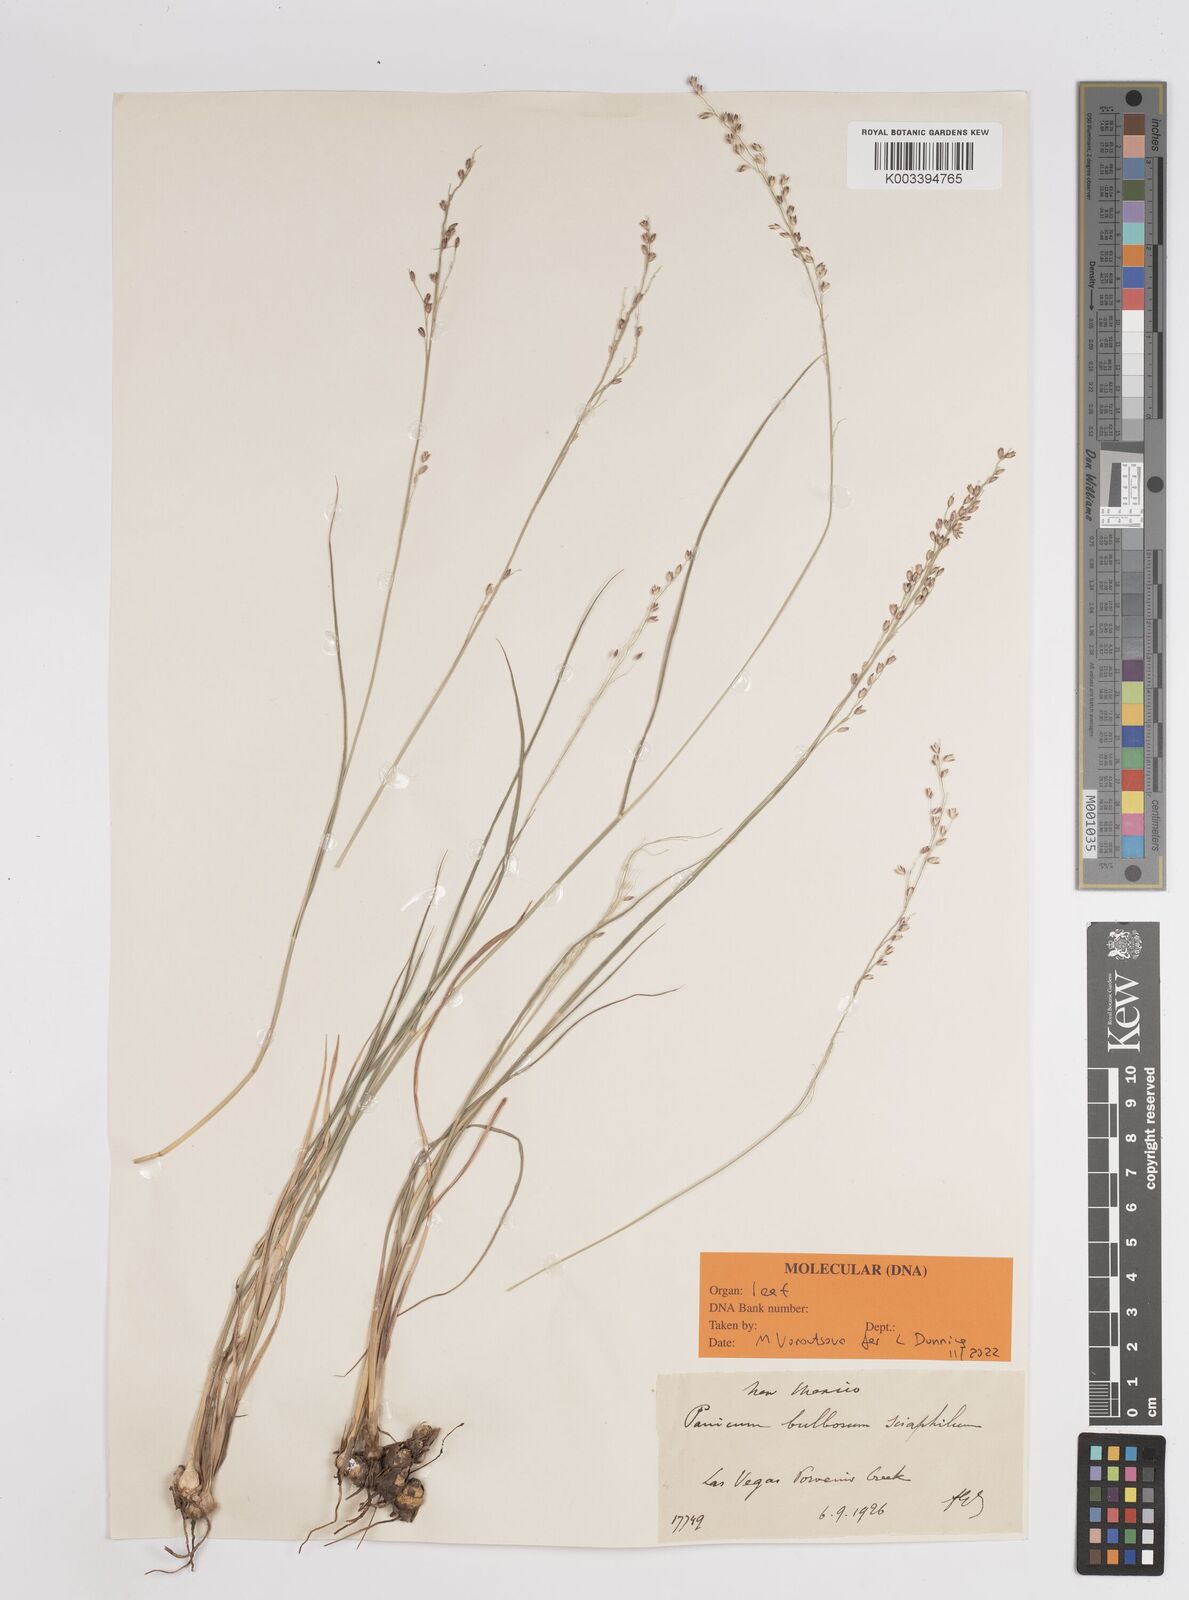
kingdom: Plantae
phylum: Tracheophyta
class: Liliopsida
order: Poales
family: Poaceae
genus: Zuloagaea
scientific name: Zuloagaea bulbosa
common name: Canyon panic grass
